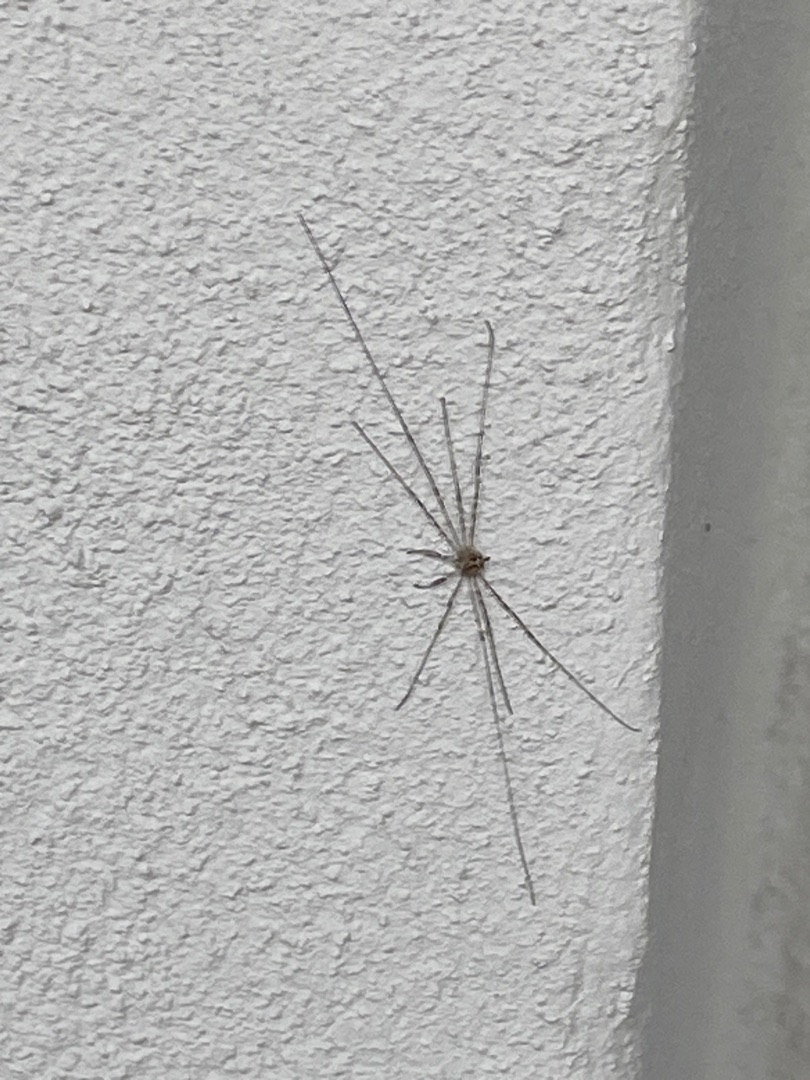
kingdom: Animalia
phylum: Arthropoda
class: Arachnida
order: Opiliones
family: Phalangiidae
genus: Dicranopalpus
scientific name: Dicranopalpus ramosus
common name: Gaffelmejer
